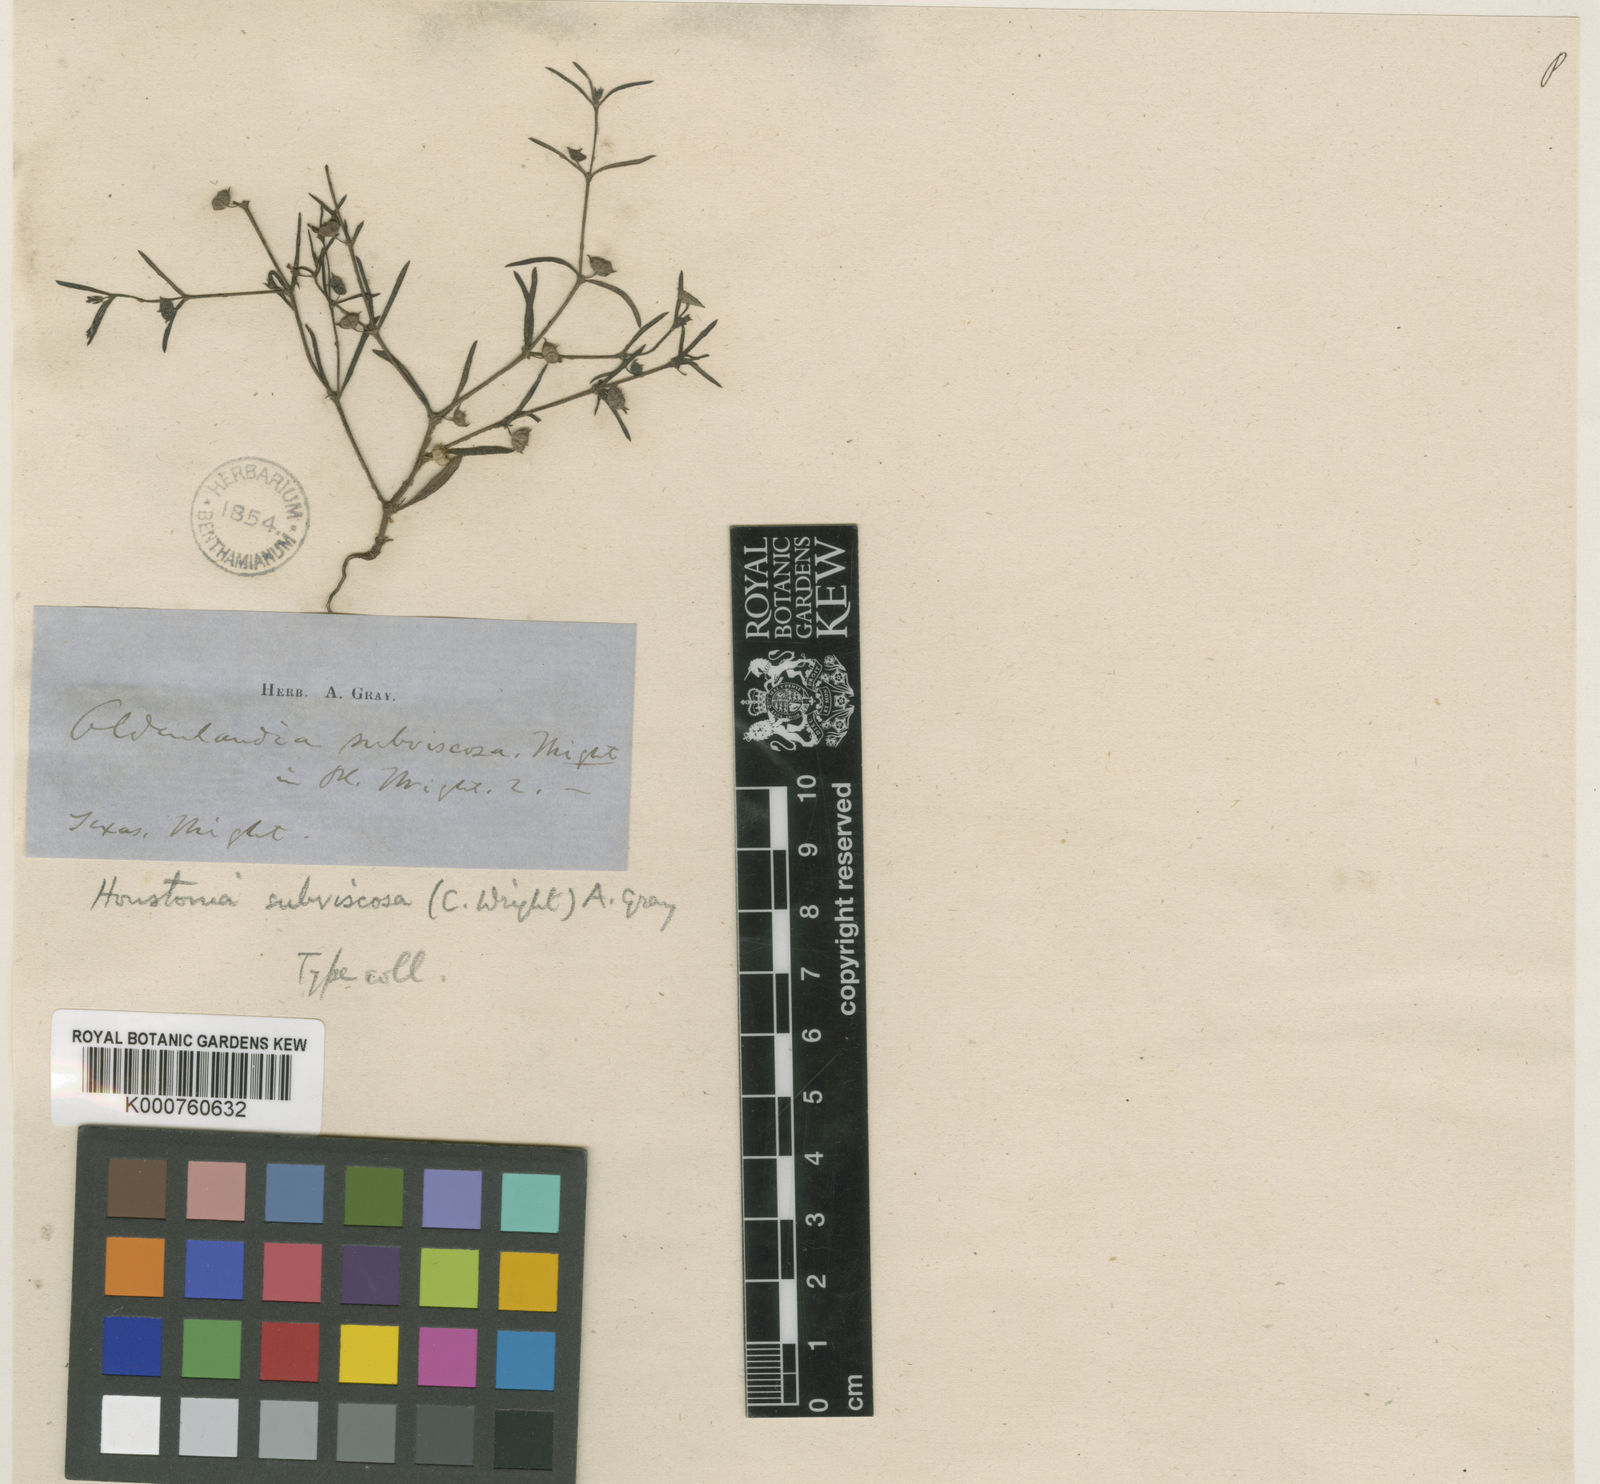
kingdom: Plantae
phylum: Tracheophyta
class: Magnoliopsida
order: Gentianales
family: Rubiaceae
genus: Houstonia
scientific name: Houstonia subviscosa
